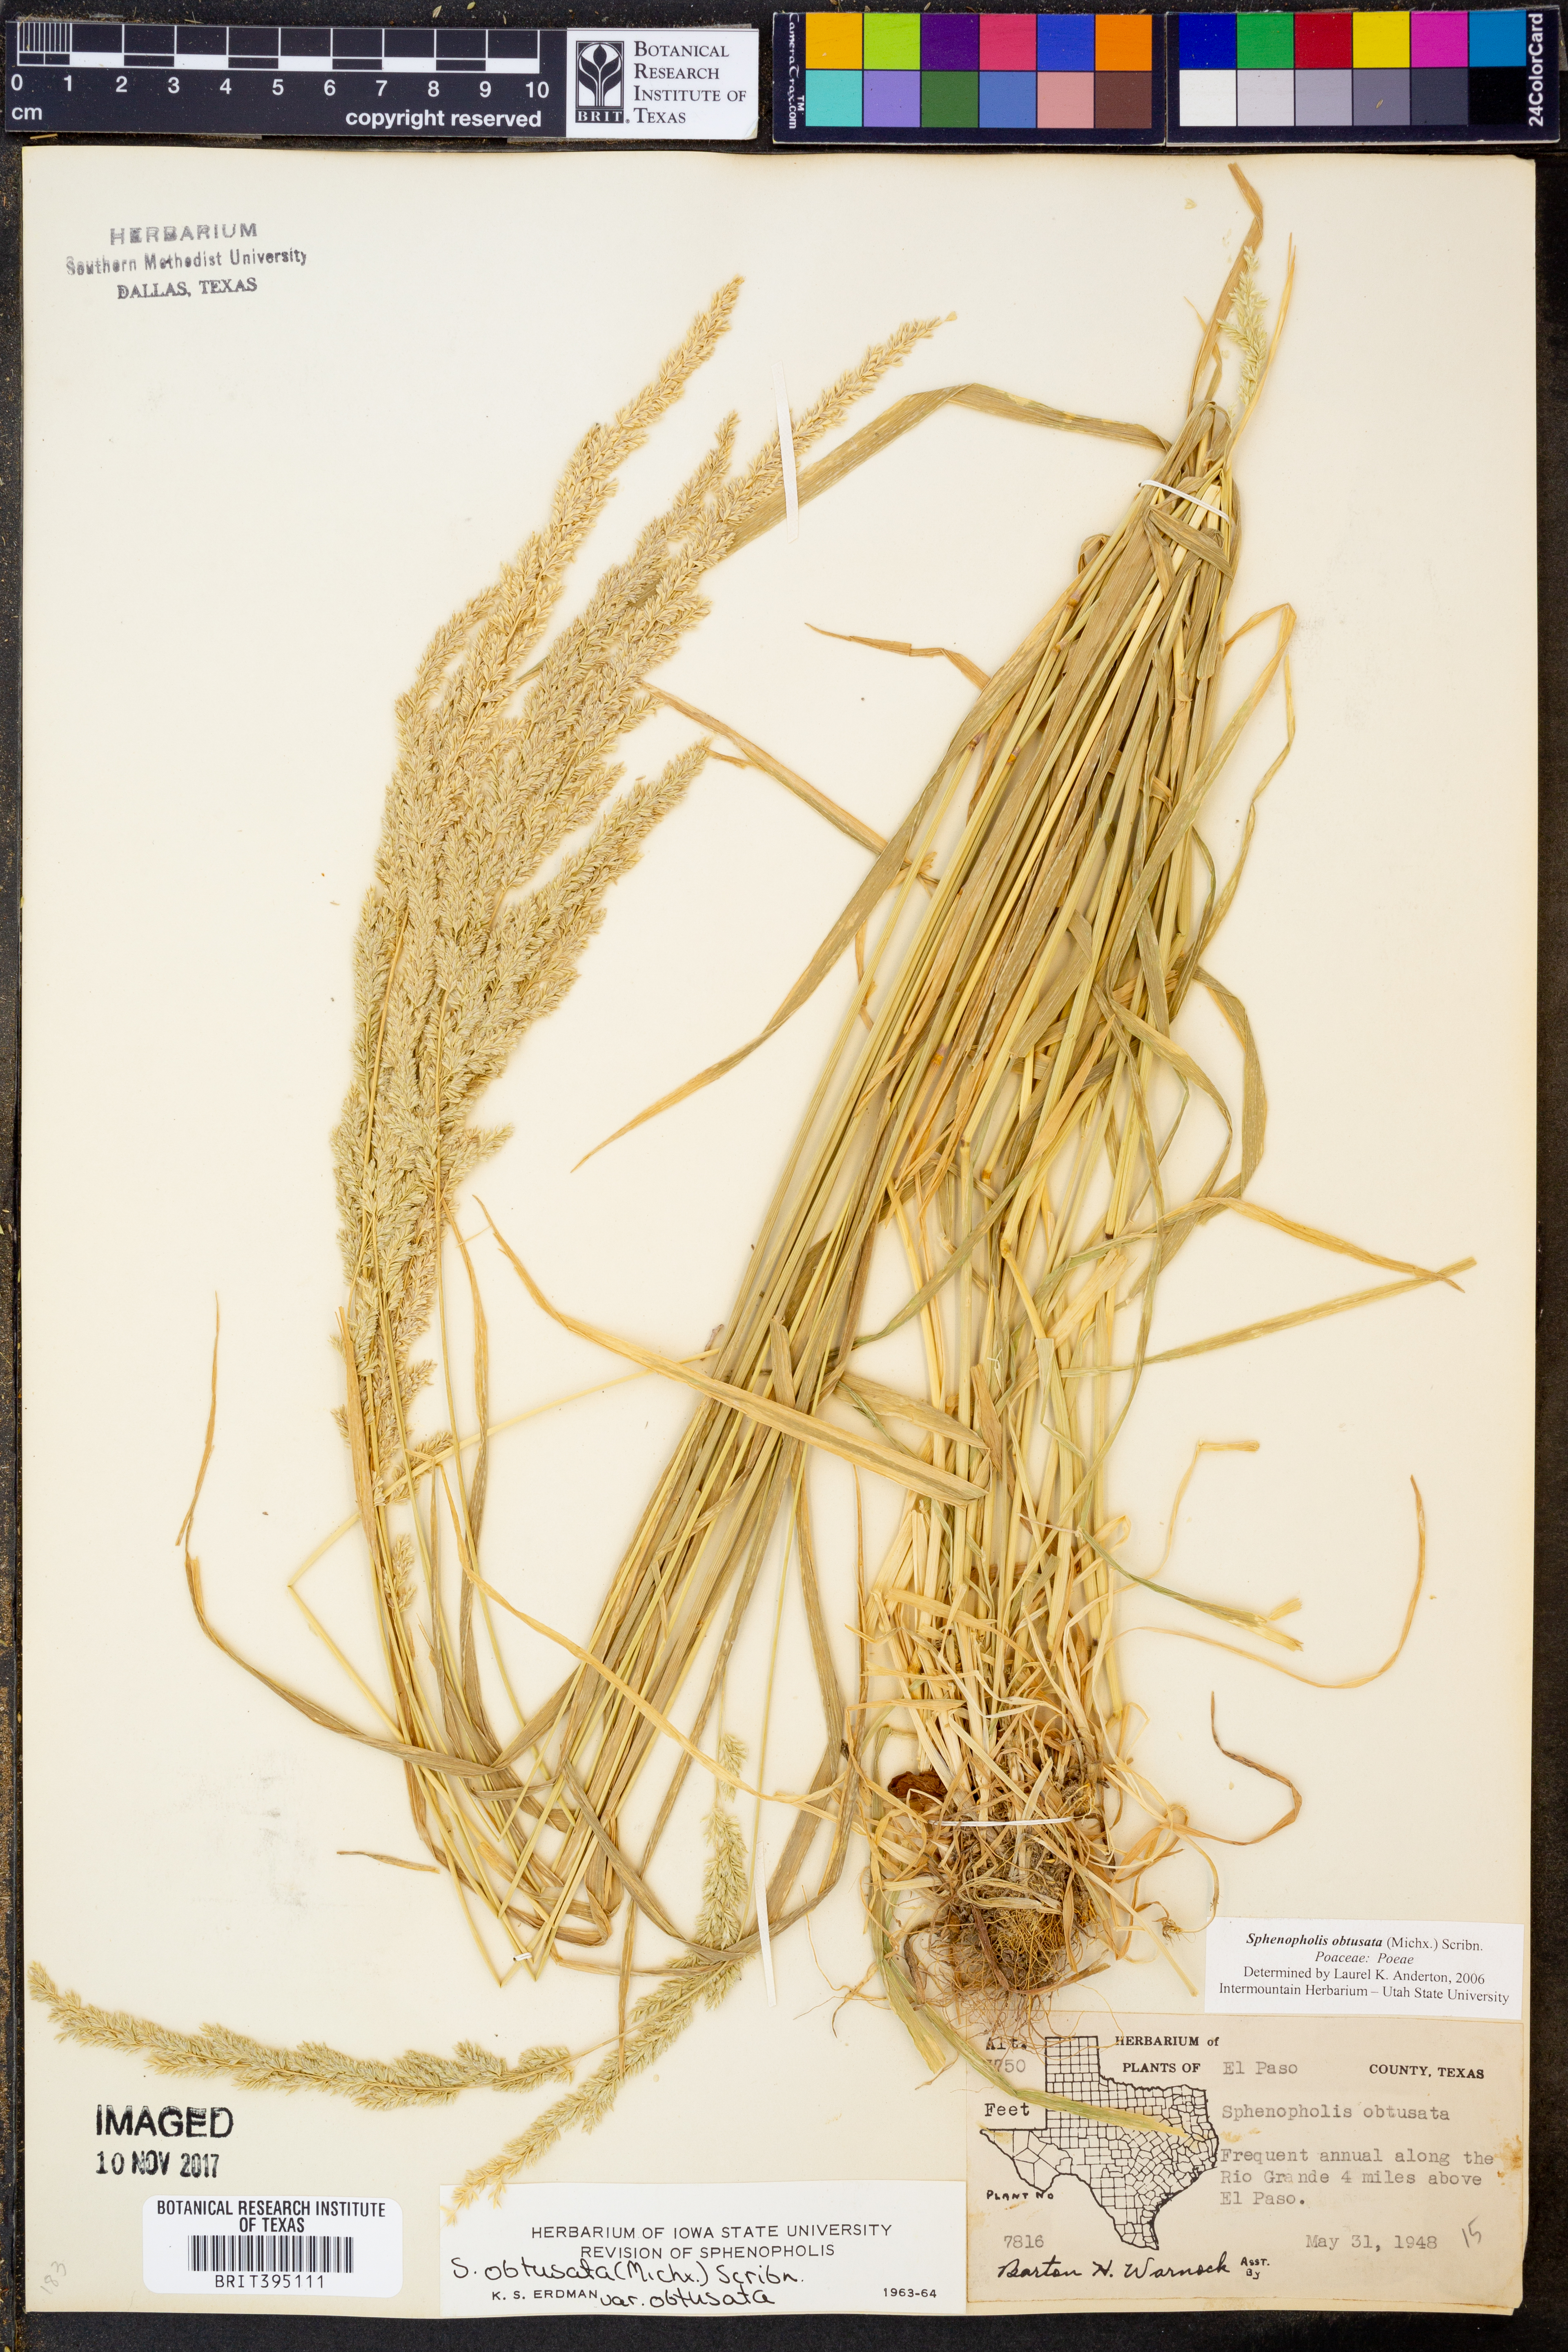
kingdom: Plantae
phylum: Tracheophyta
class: Liliopsida
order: Poales
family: Poaceae
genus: Sphenopholis
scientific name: Sphenopholis obtusata
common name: Prairie grass
